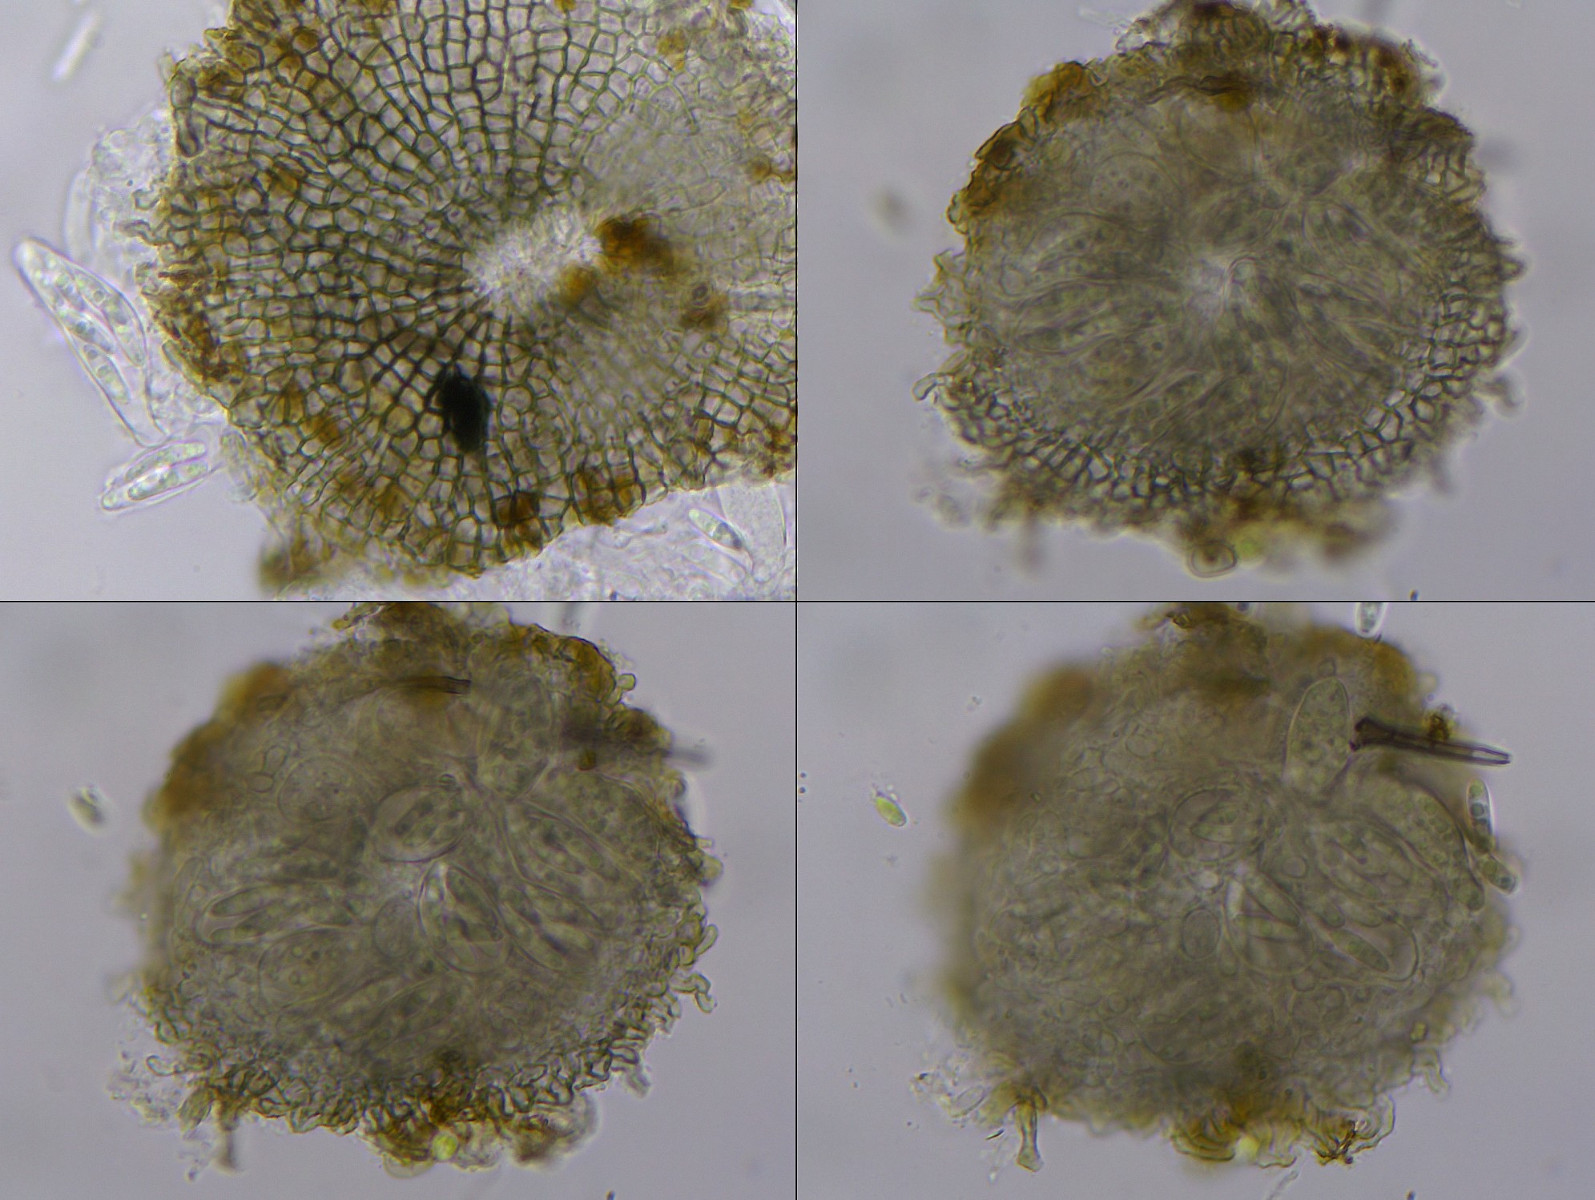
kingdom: Fungi
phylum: Ascomycota
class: Dothideomycetes
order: Microthyriales
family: Microthyriaceae
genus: Microthyrium
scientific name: Microthyrium pinophyllum
